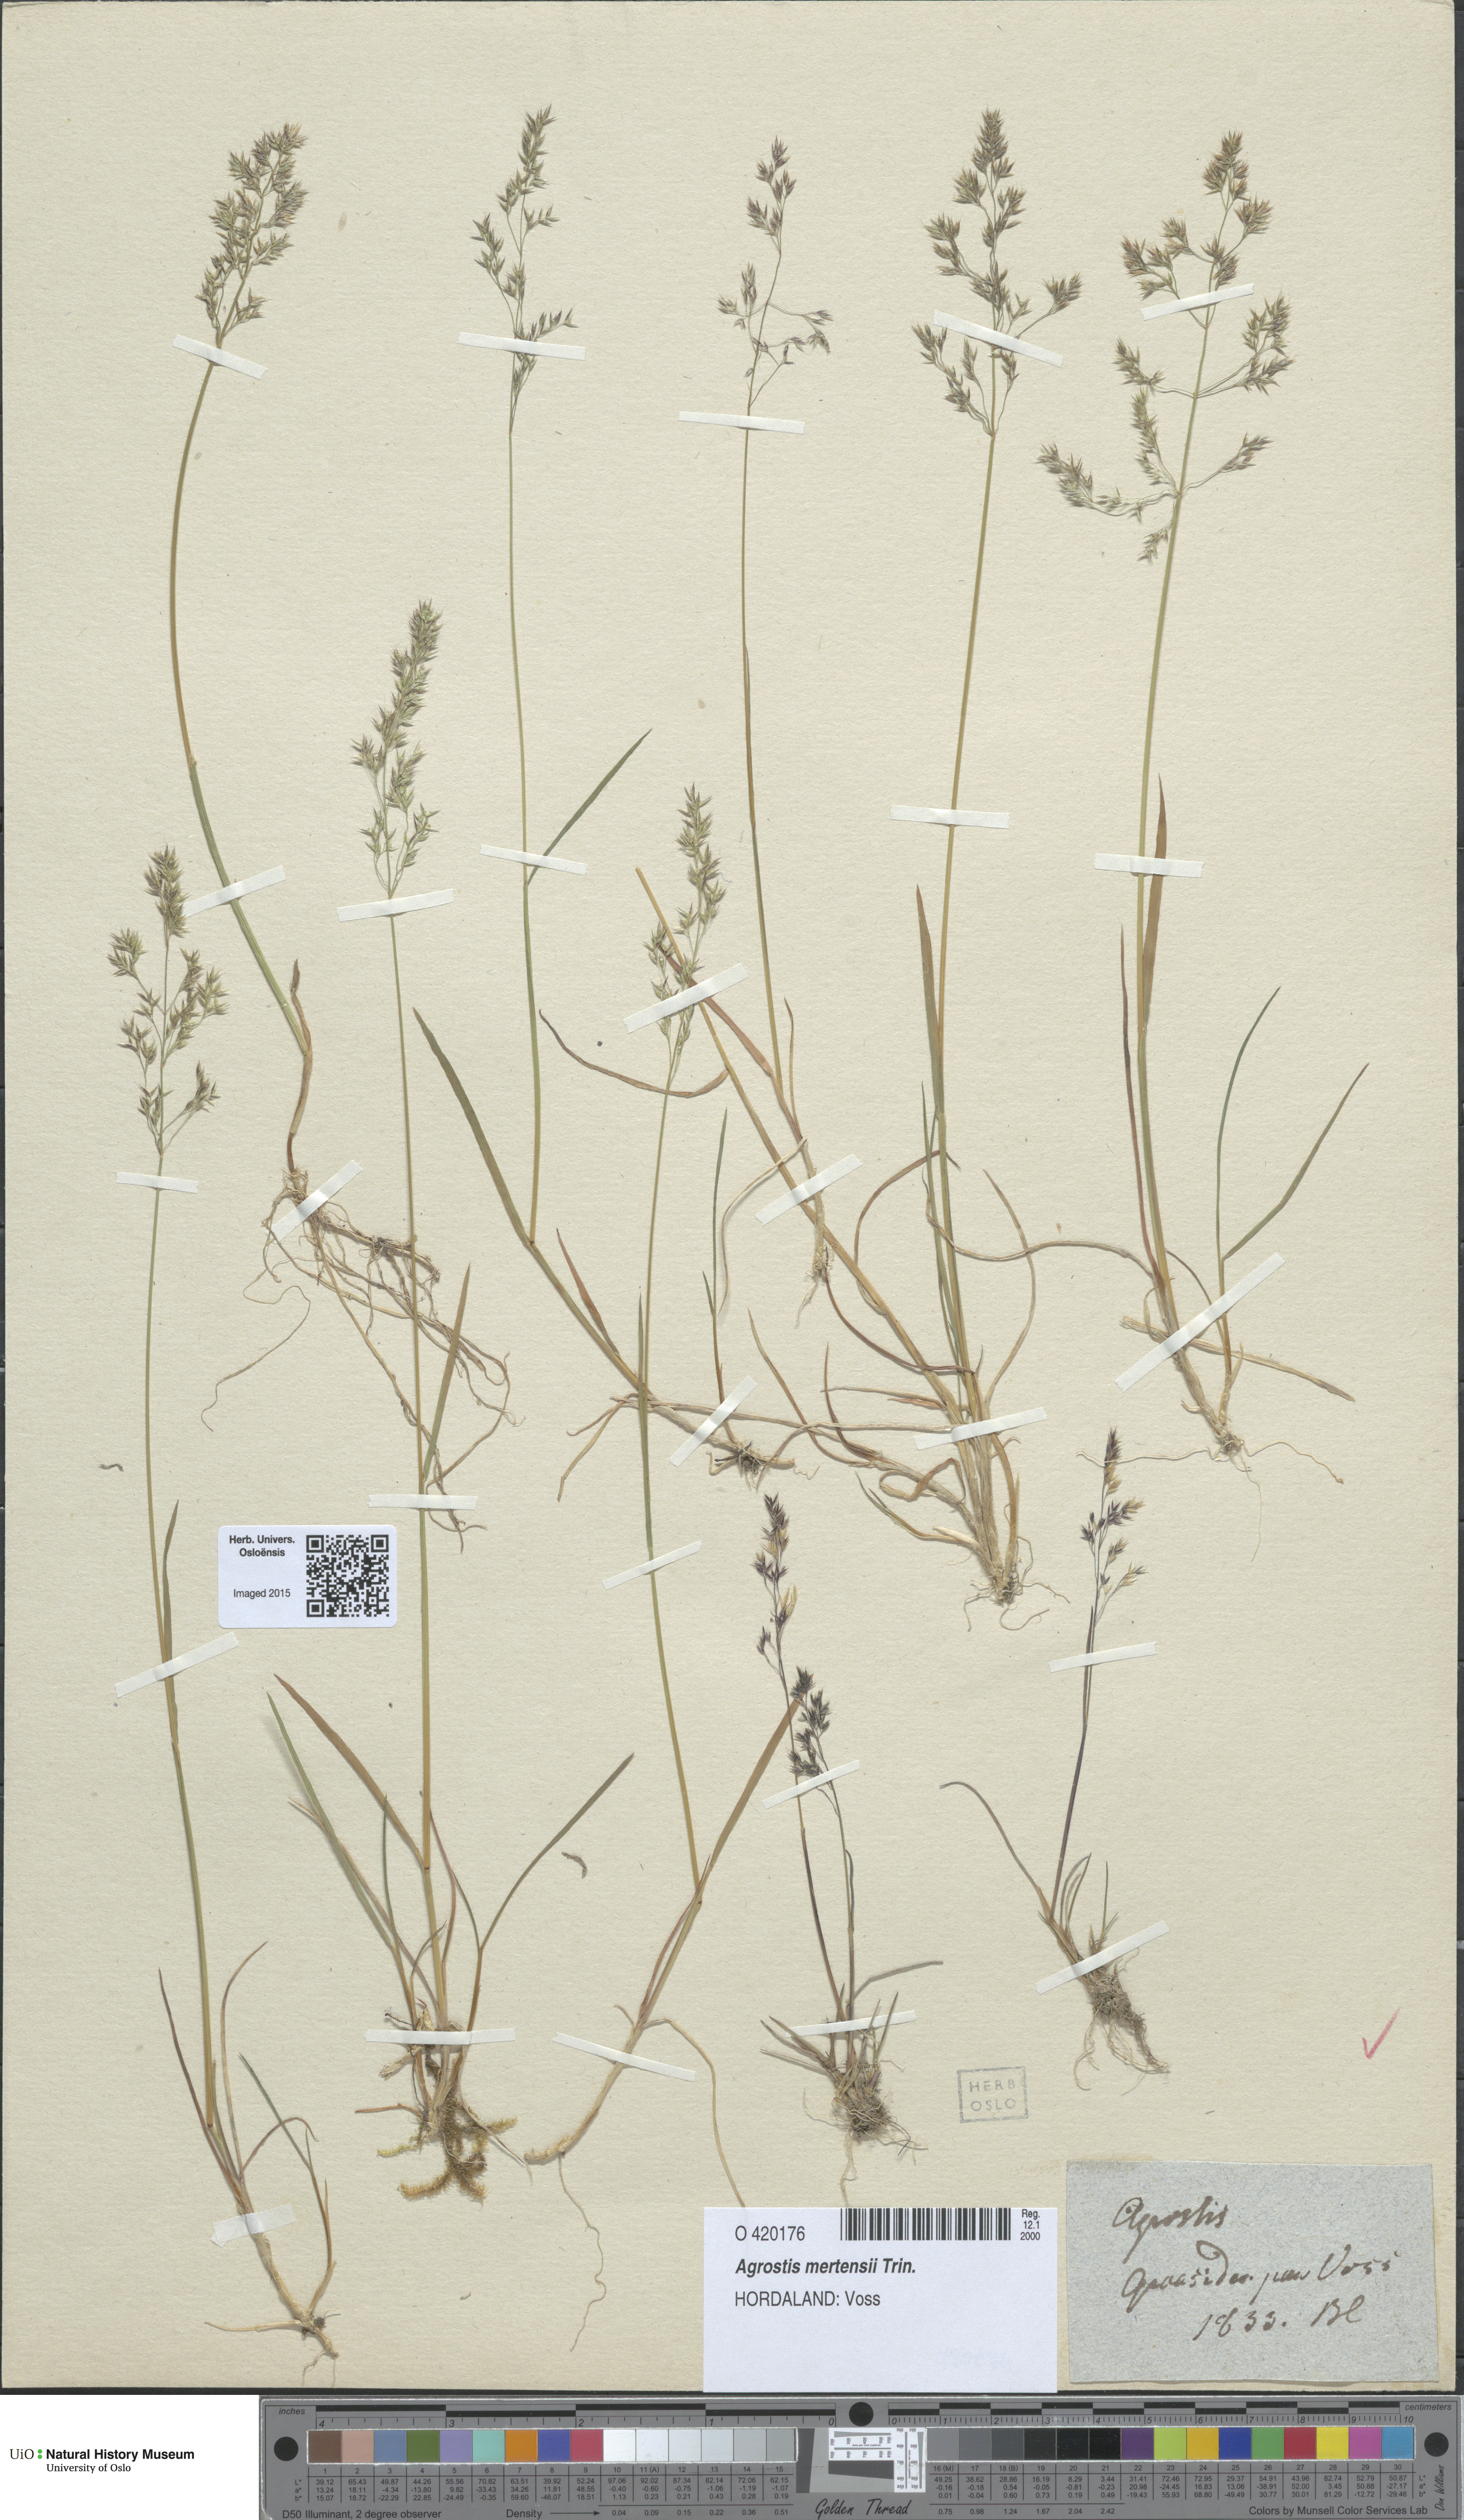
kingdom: Plantae
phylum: Tracheophyta
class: Liliopsida
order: Poales
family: Poaceae
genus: Agrostis
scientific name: Agrostis mertensii
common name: Northern bent
